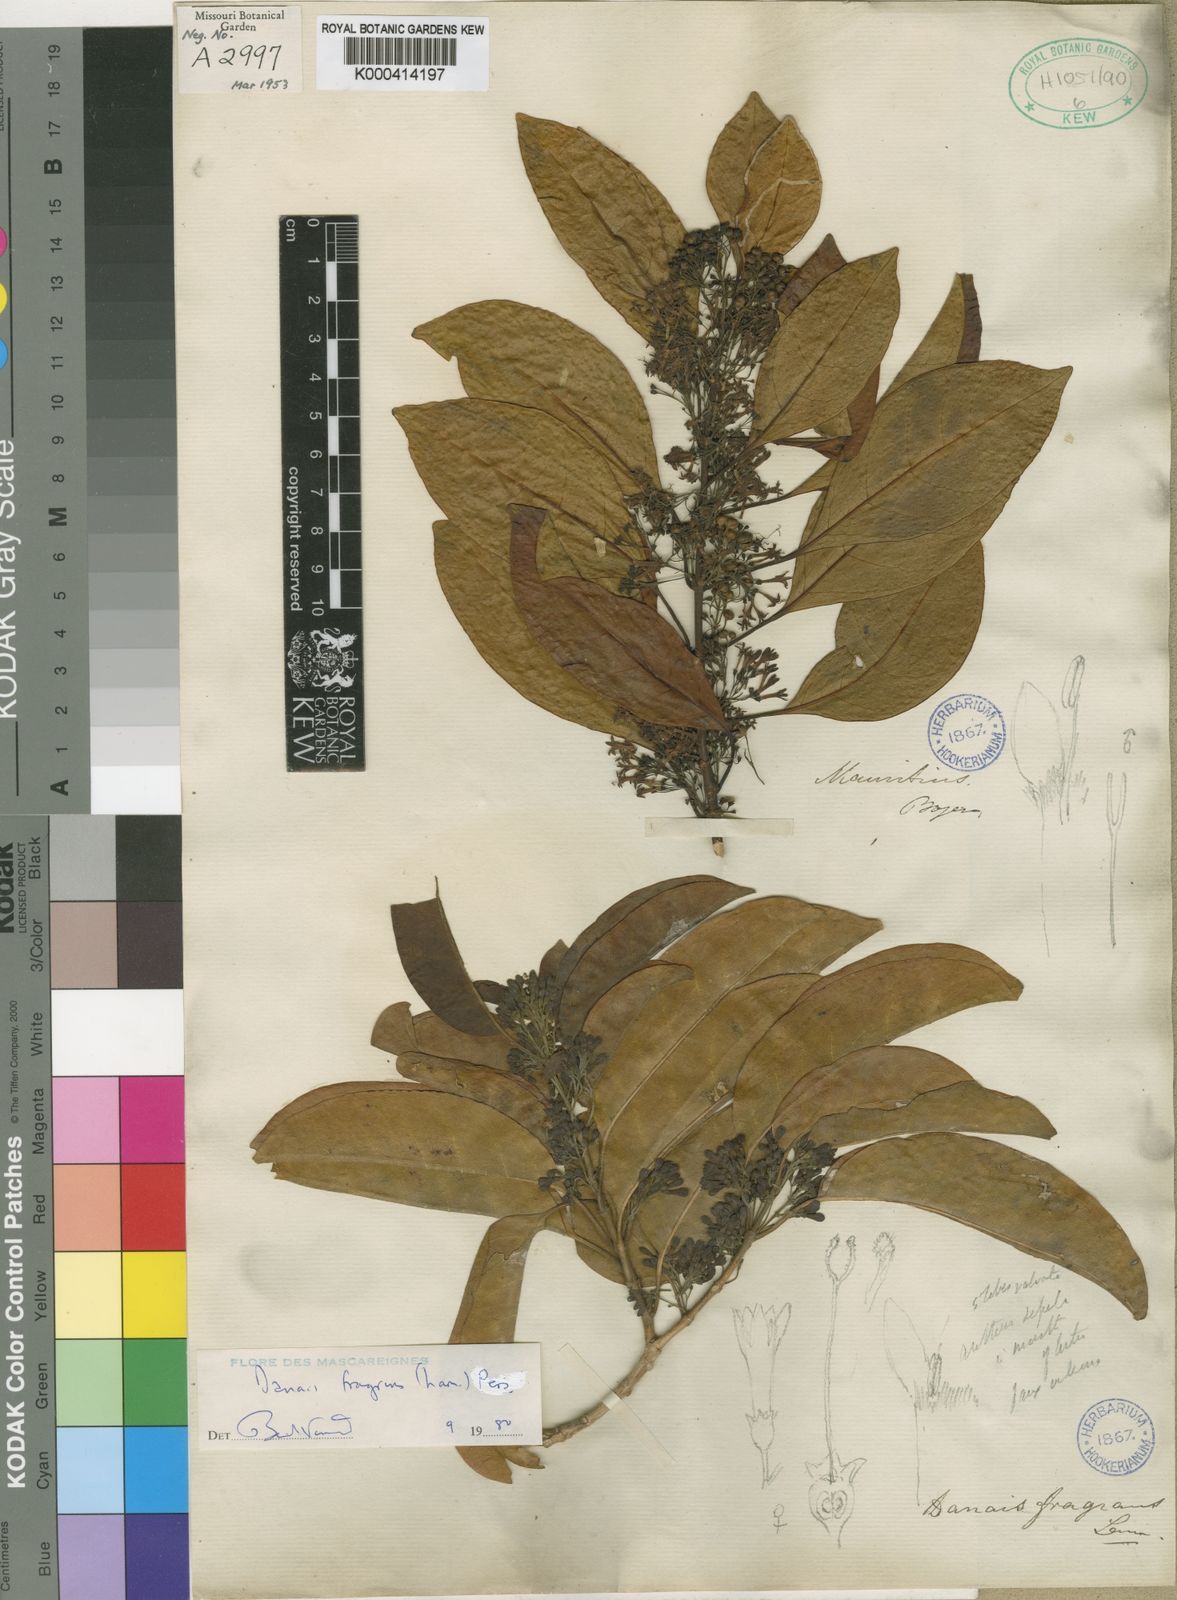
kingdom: Plantae
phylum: Tracheophyta
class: Magnoliopsida
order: Gentianales
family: Rubiaceae
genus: Danais
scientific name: Danais fragrans
